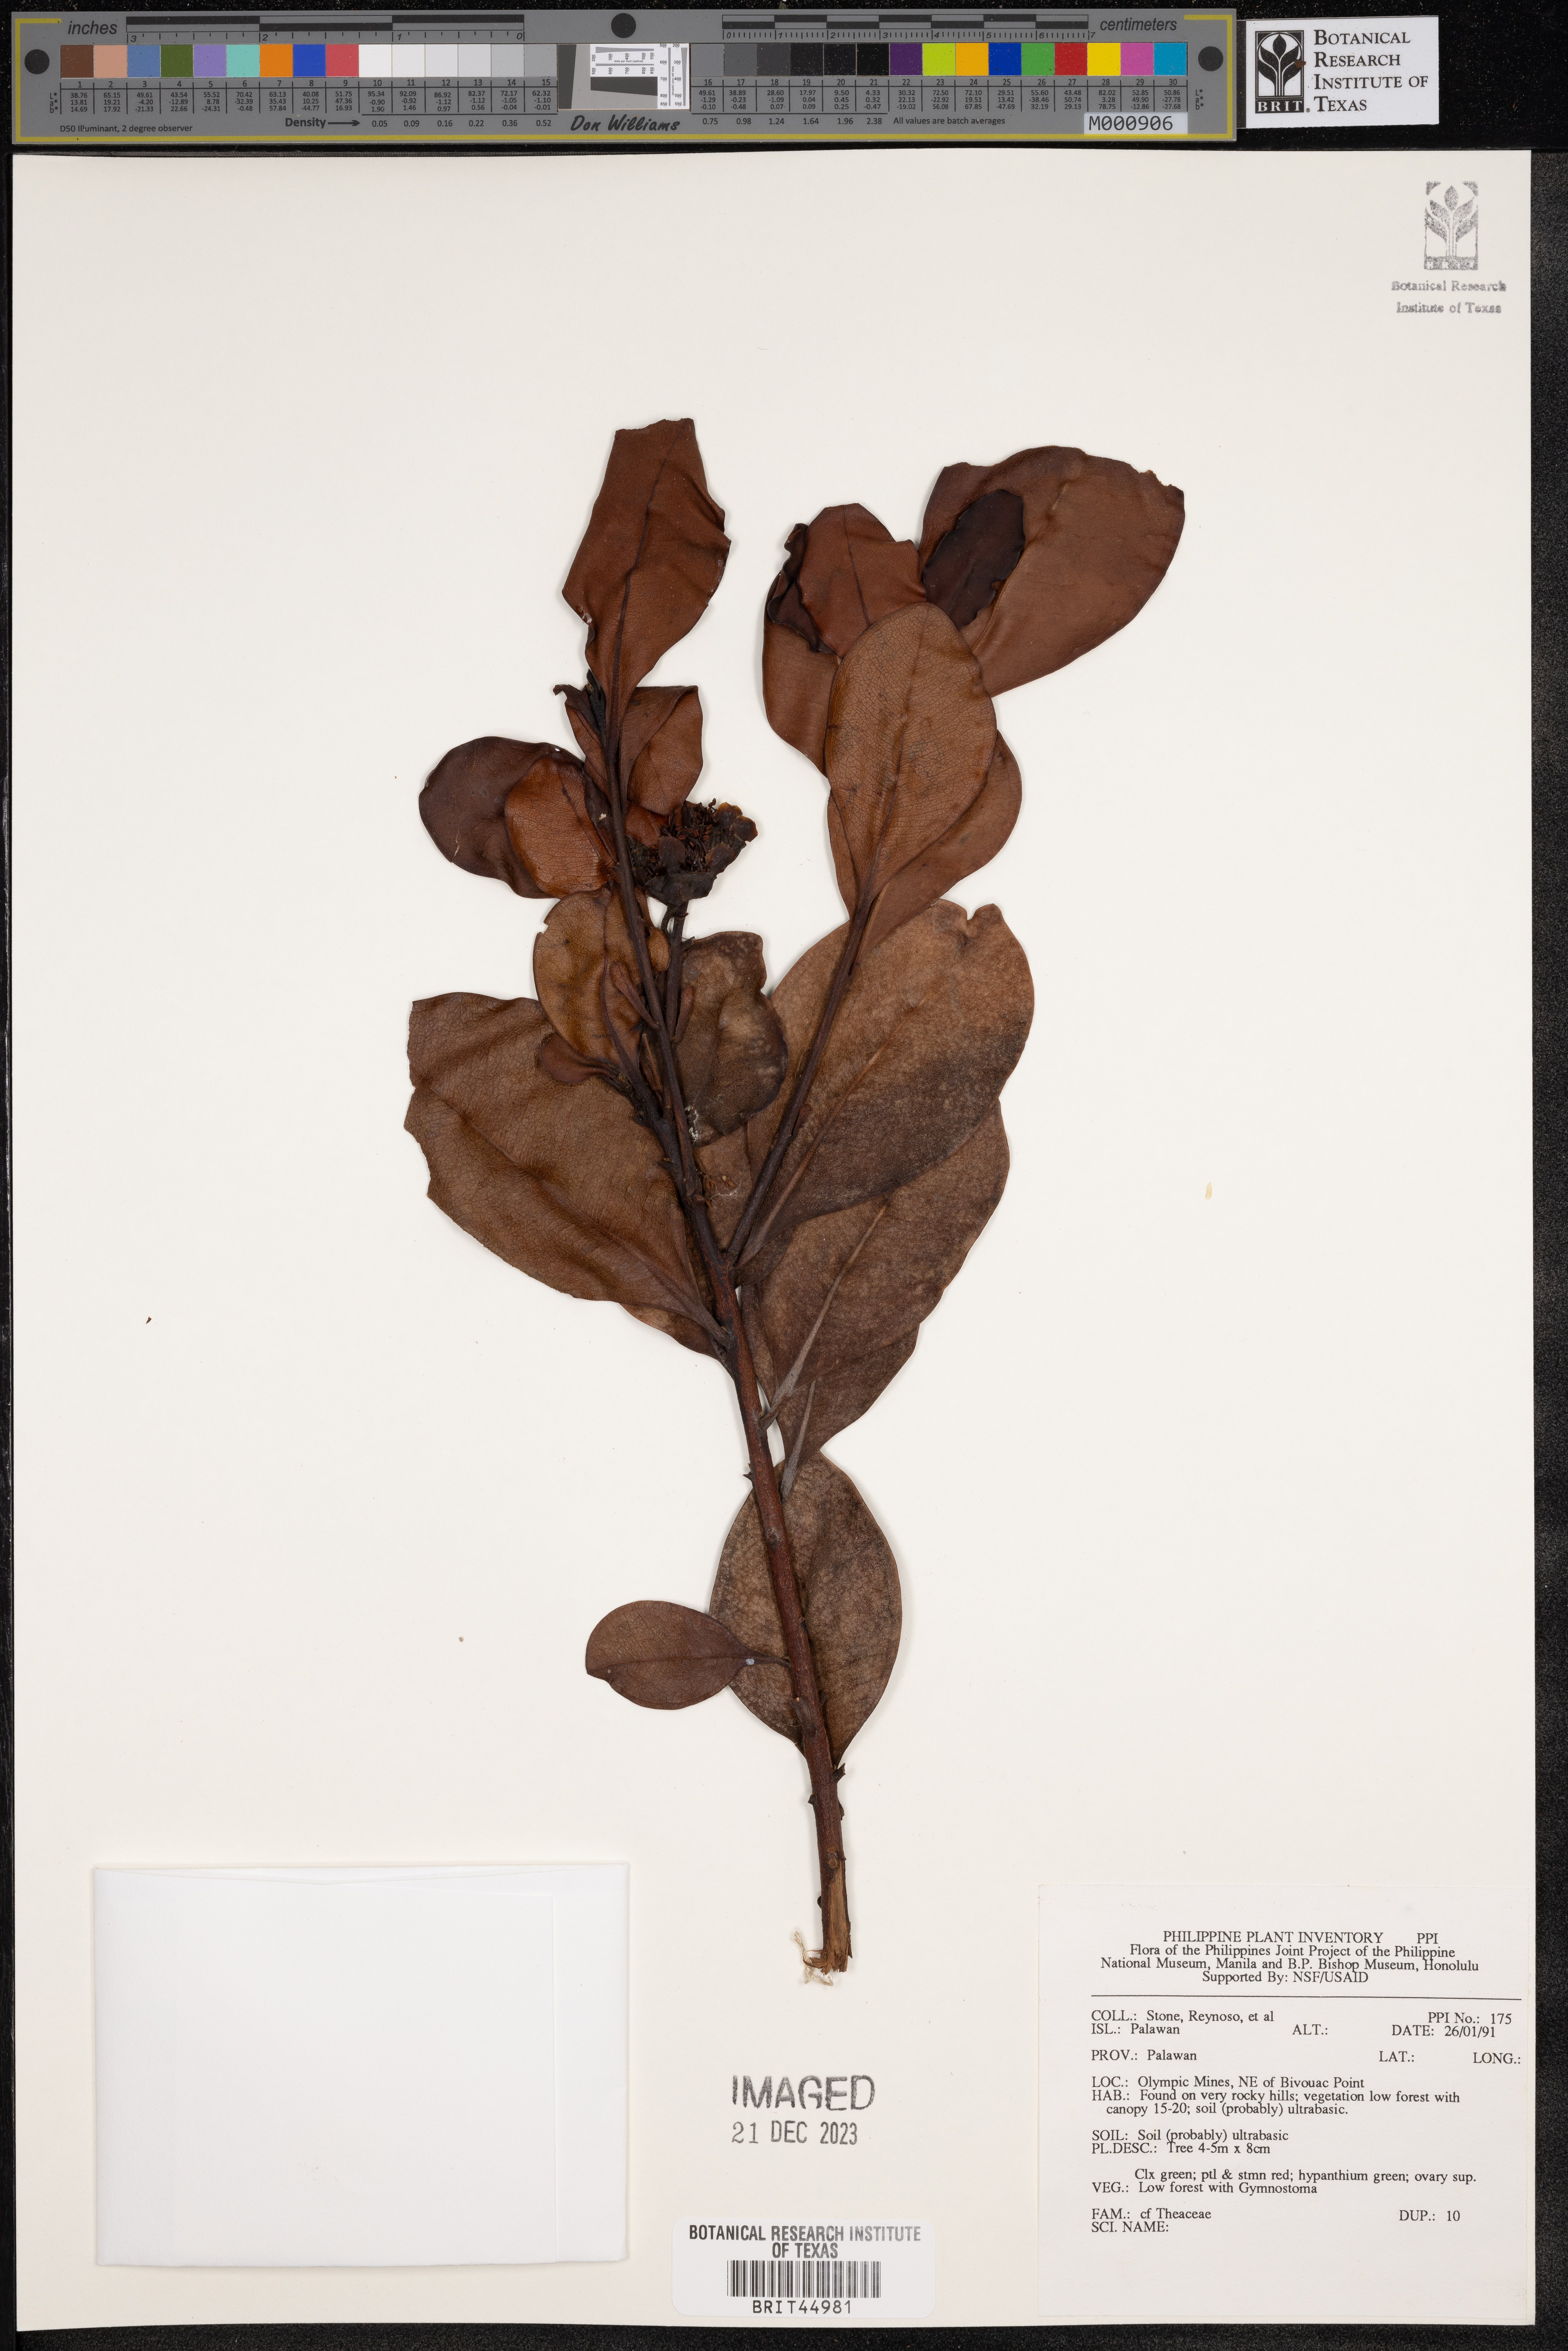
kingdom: Plantae
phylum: Tracheophyta
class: Magnoliopsida
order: Ericales
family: Theaceae
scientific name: Theaceae
